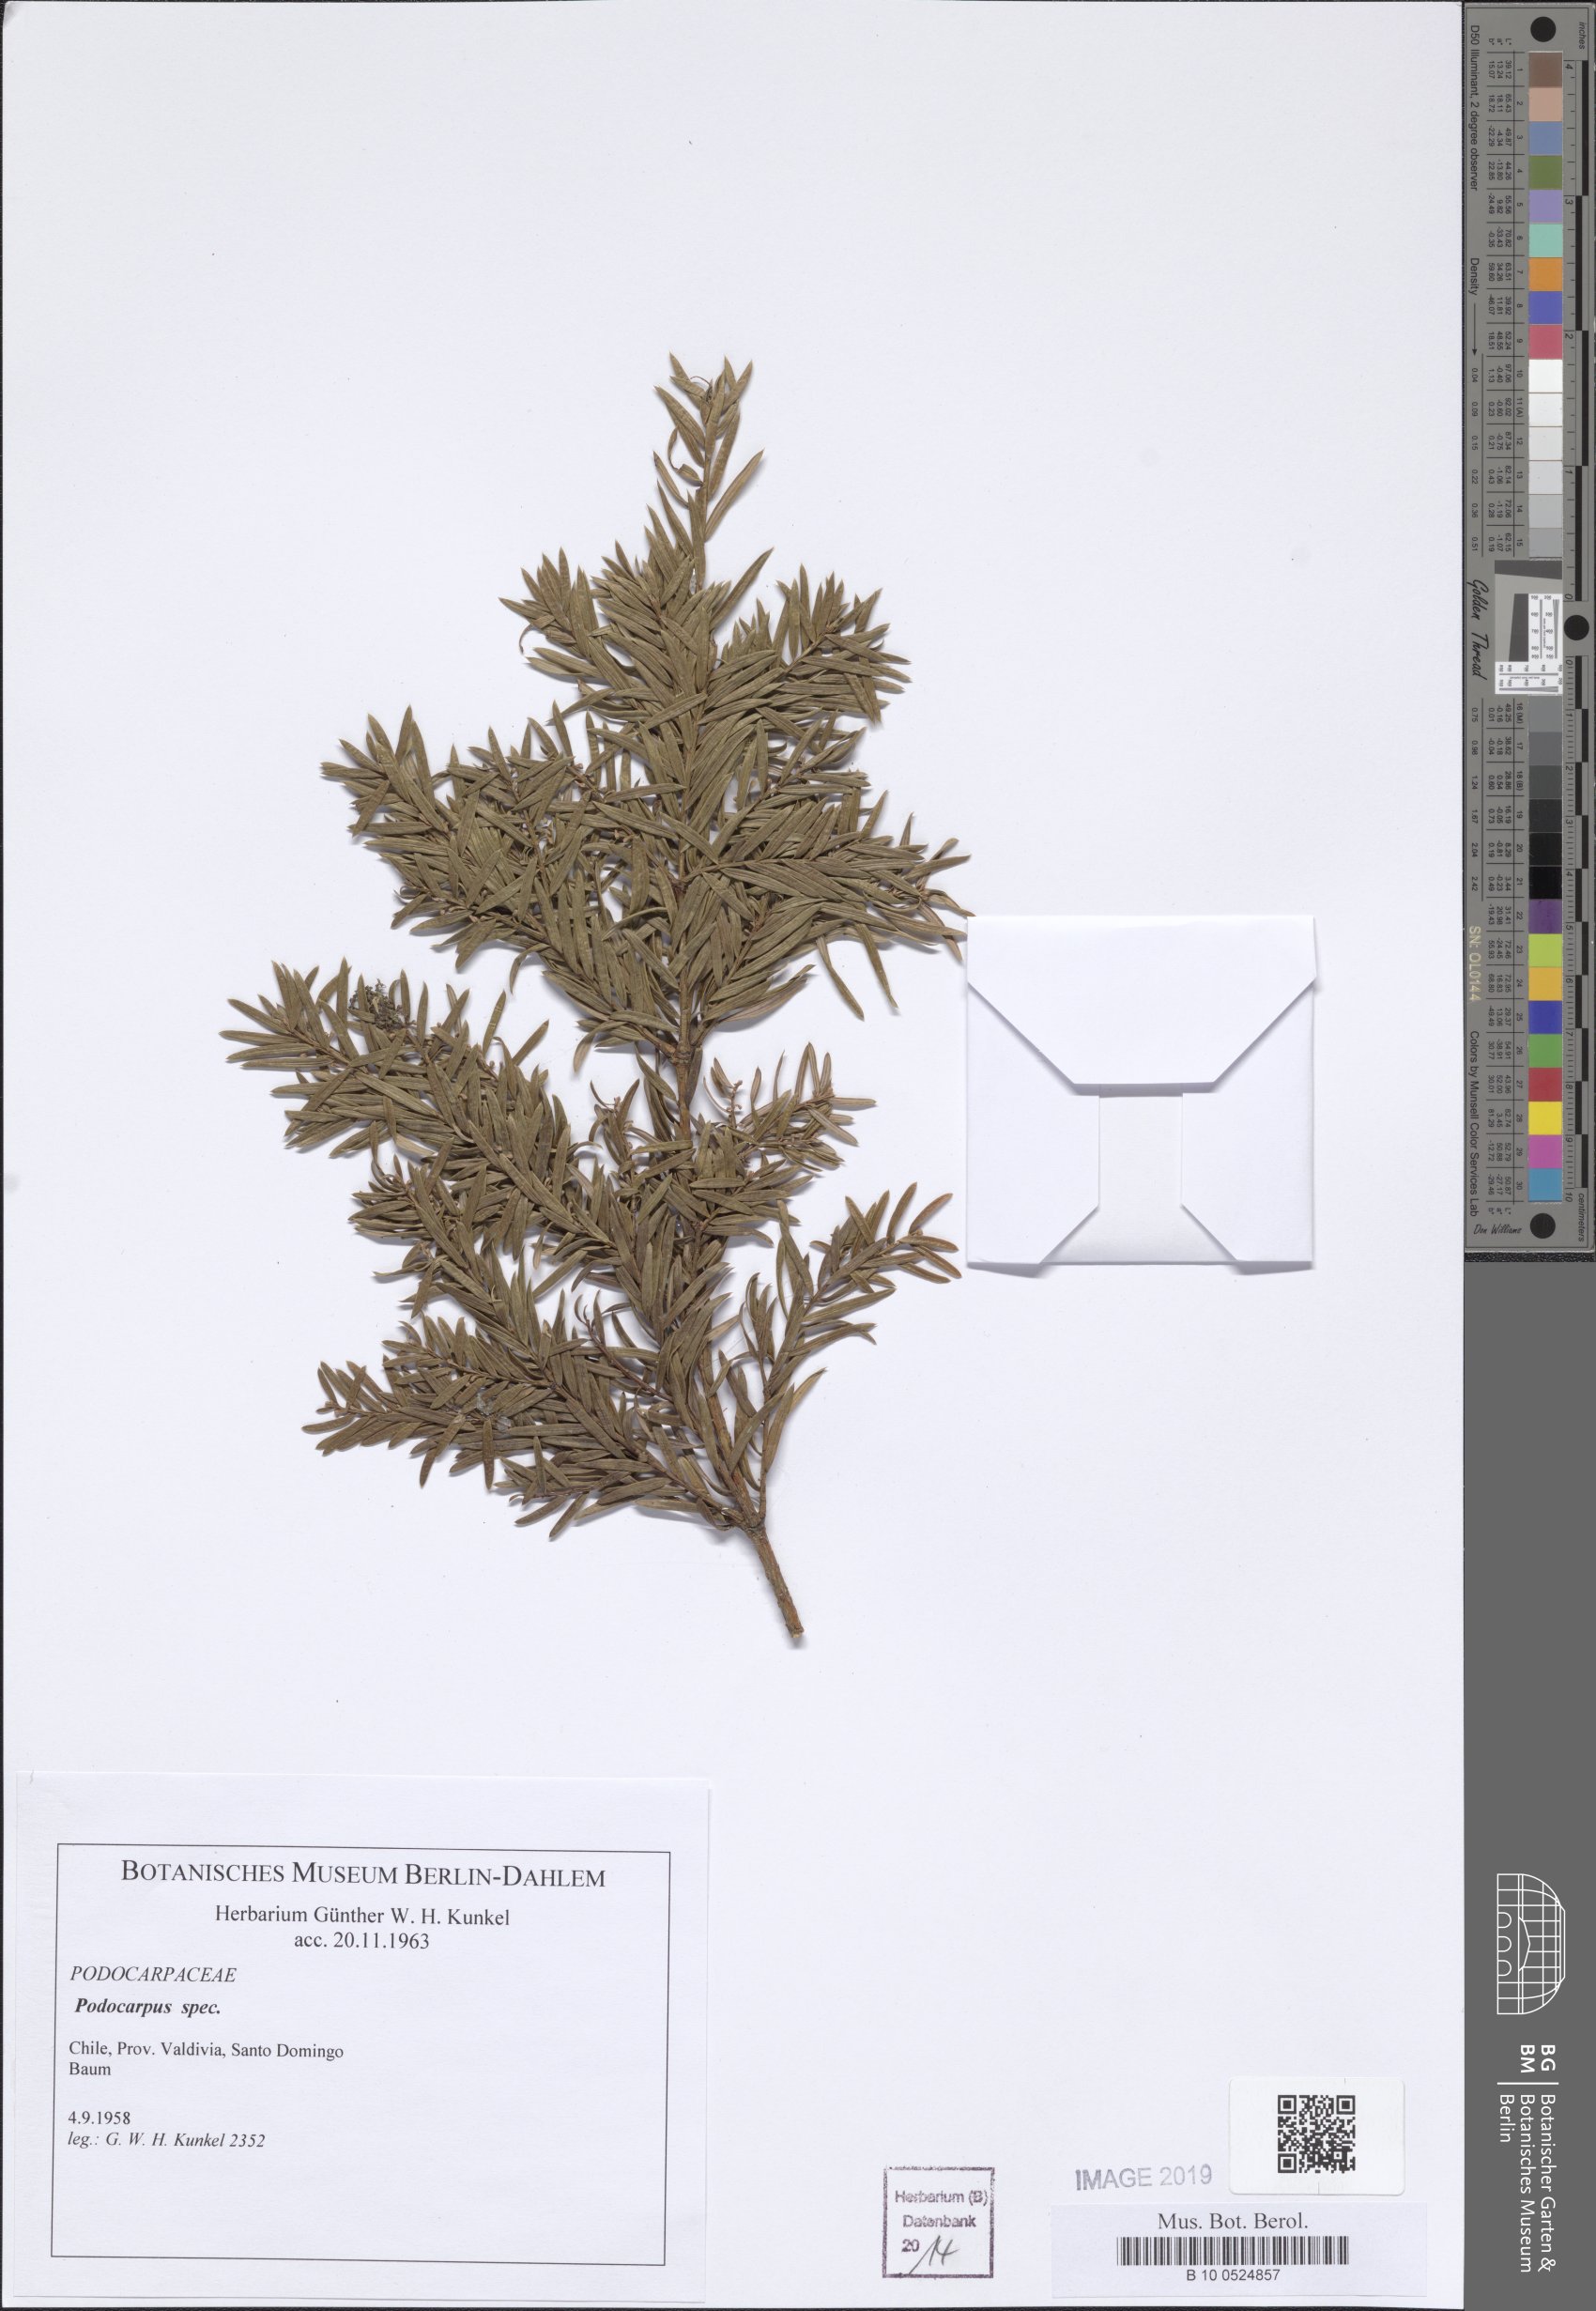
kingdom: Plantae
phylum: Tracheophyta
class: Pinopsida
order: Pinales
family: Podocarpaceae
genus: Podocarpus
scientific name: Podocarpus
